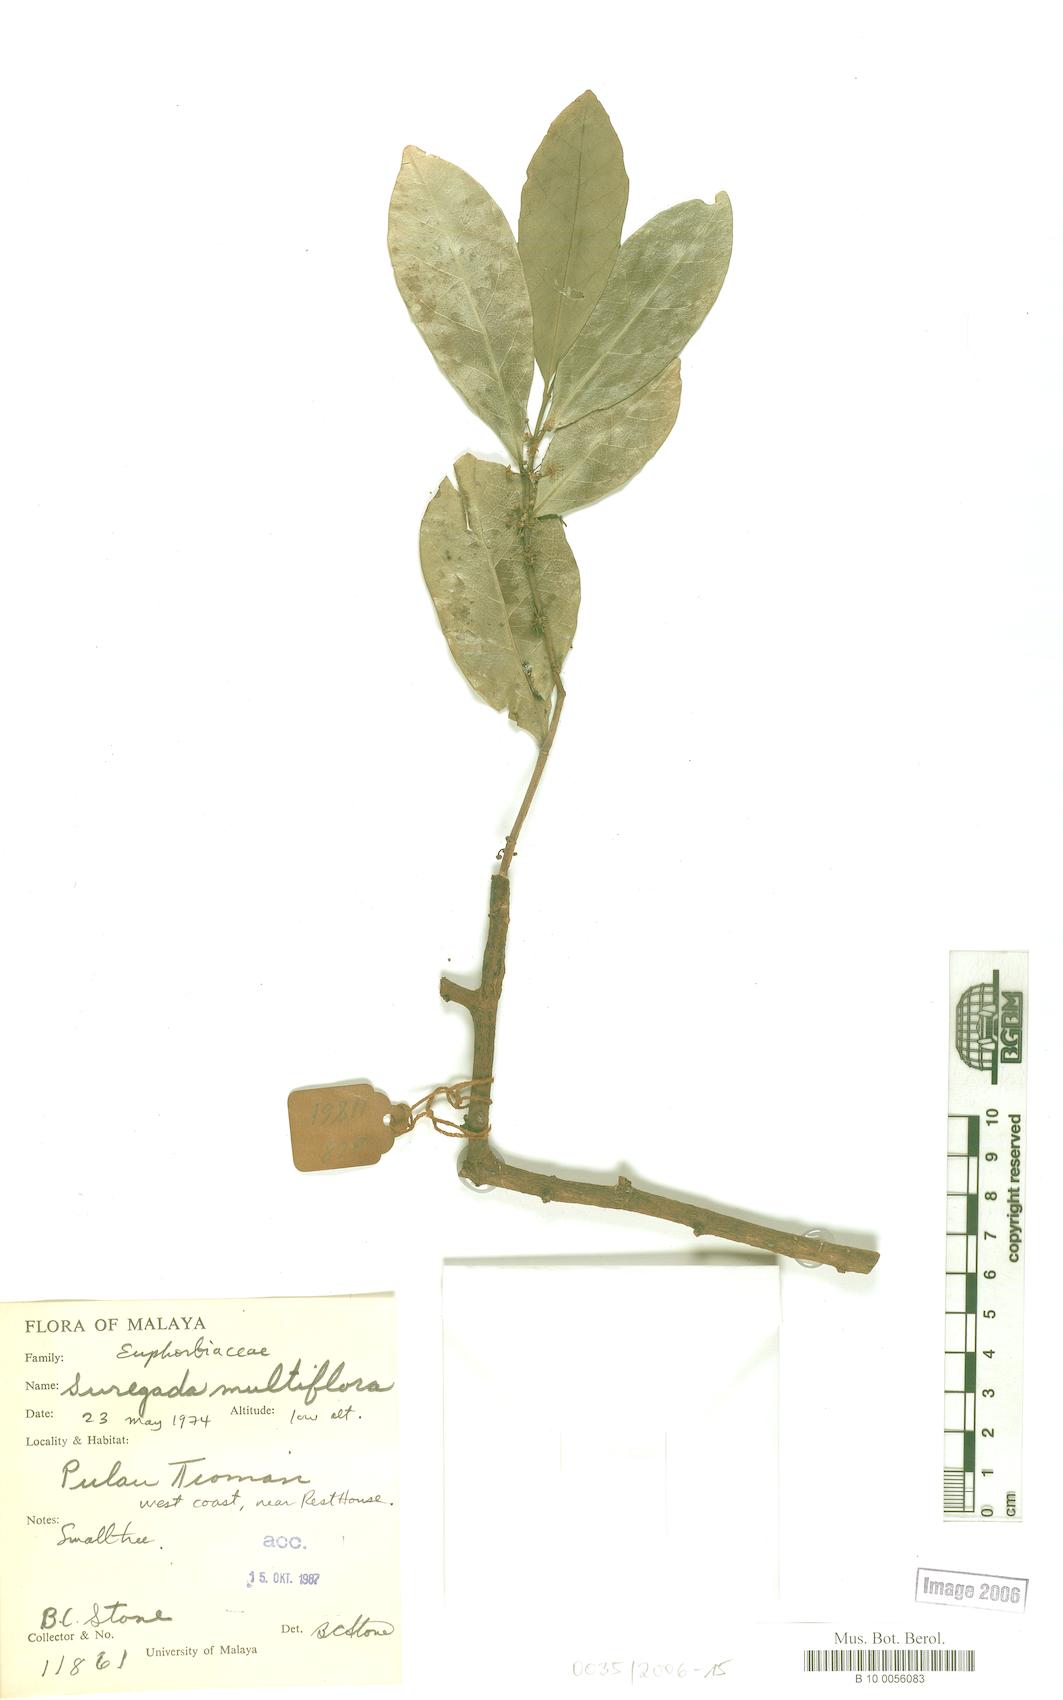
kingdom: Plantae
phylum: Tracheophyta
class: Magnoliopsida
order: Malpighiales
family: Euphorbiaceae
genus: Suregada
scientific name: Suregada glomerulata
